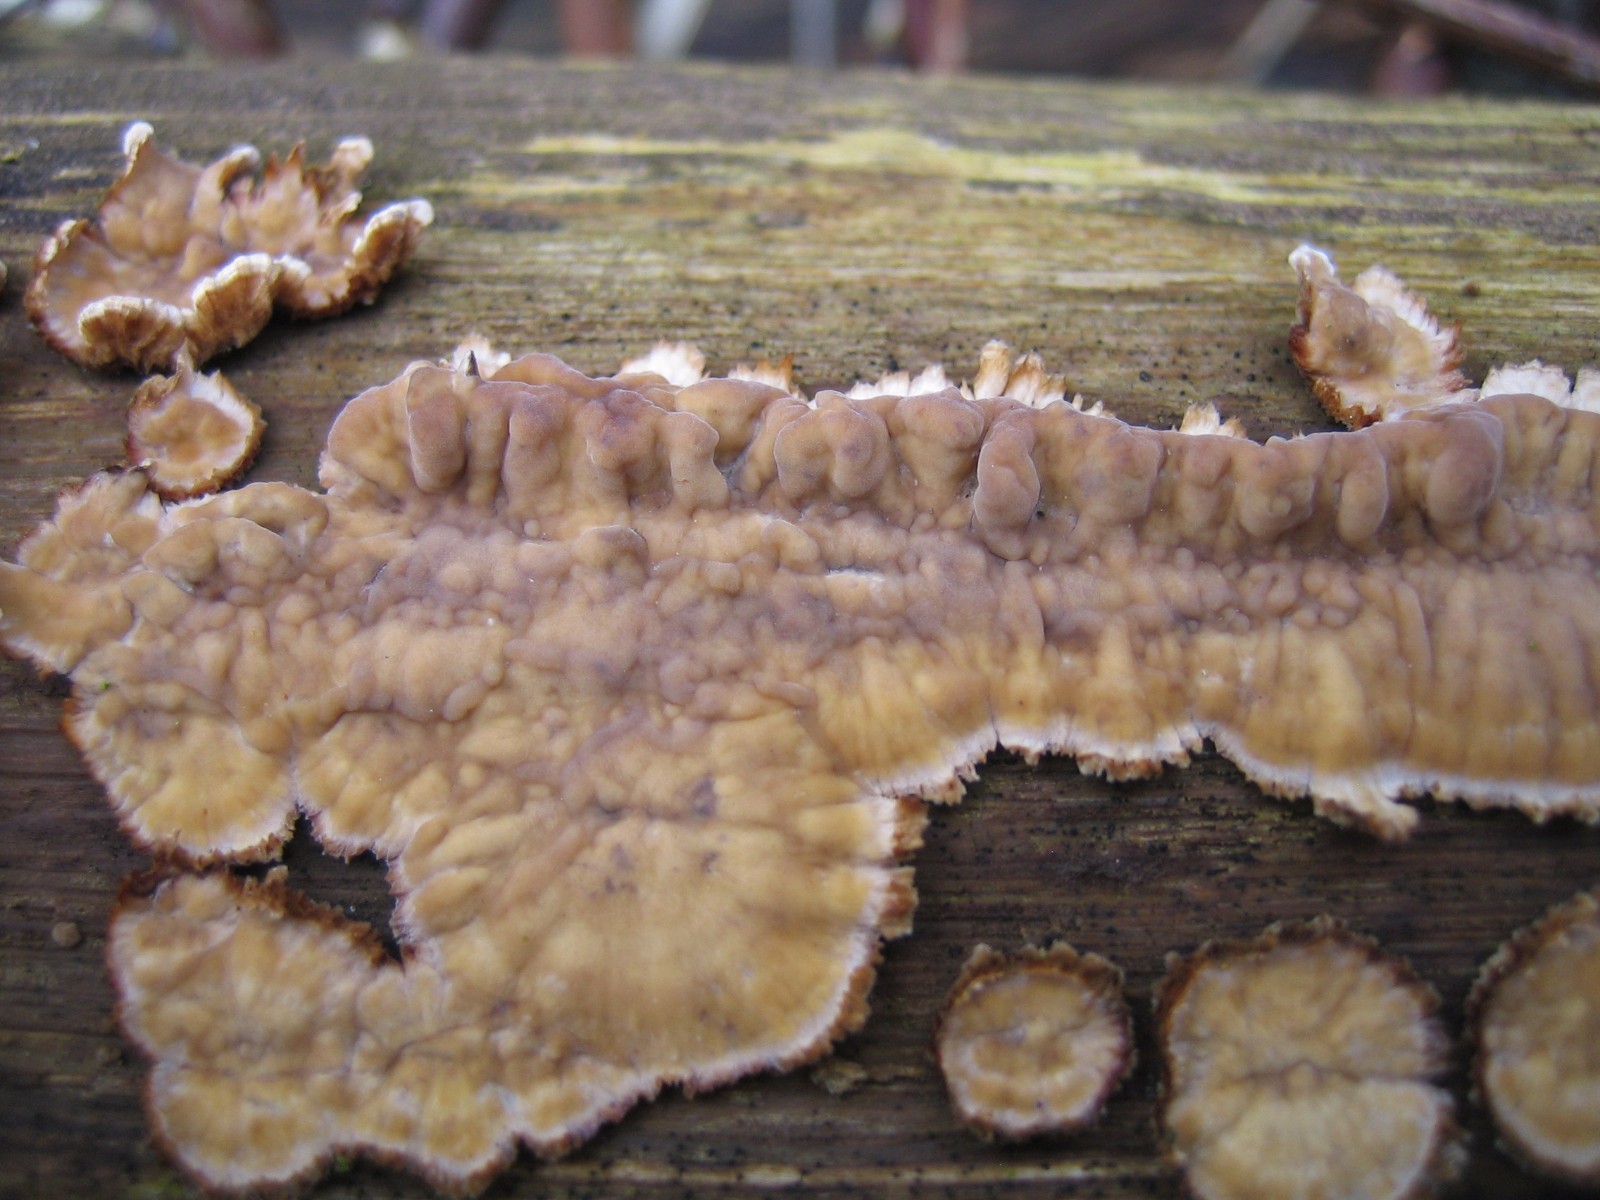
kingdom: Fungi
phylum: Basidiomycota
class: Agaricomycetes
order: Russulales
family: Stereaceae
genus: Stereum
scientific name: Stereum rugosum
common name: rynket lædersvamp
